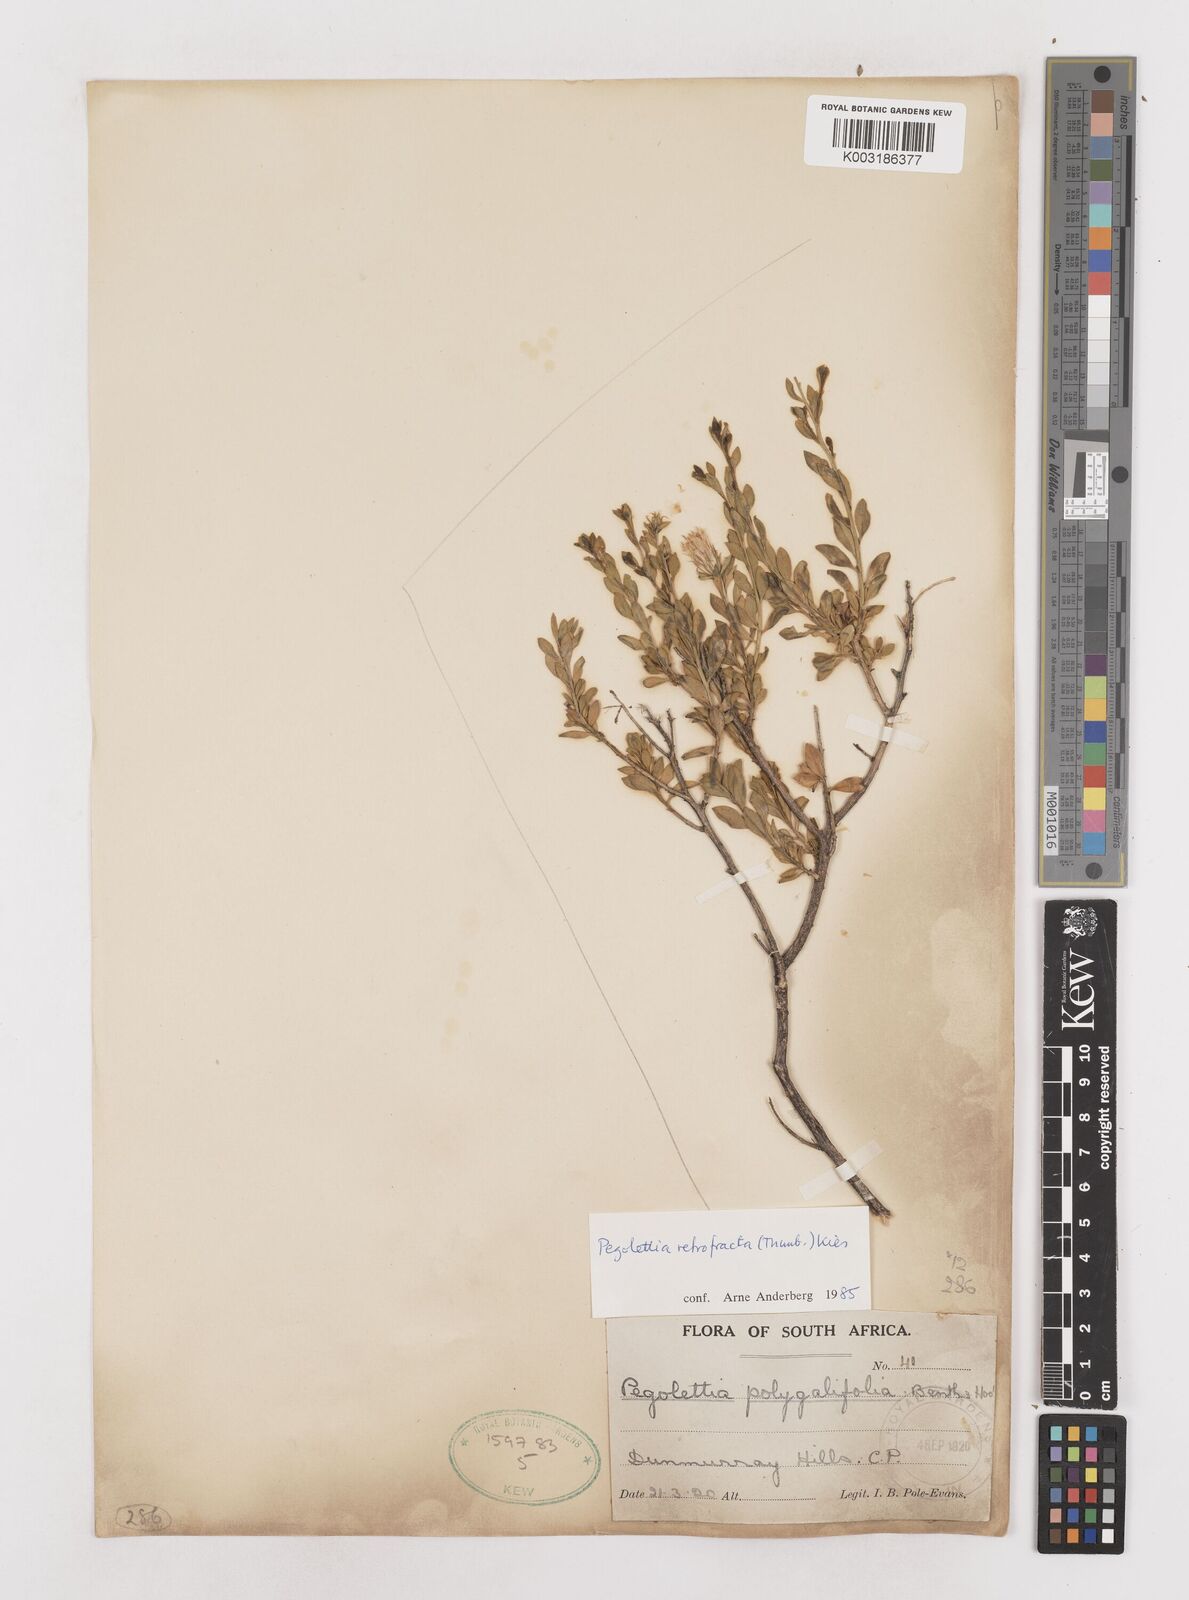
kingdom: Plantae
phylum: Tracheophyta
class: Magnoliopsida
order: Asterales
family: Asteraceae
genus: Pegolettia
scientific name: Pegolettia retrofracta
